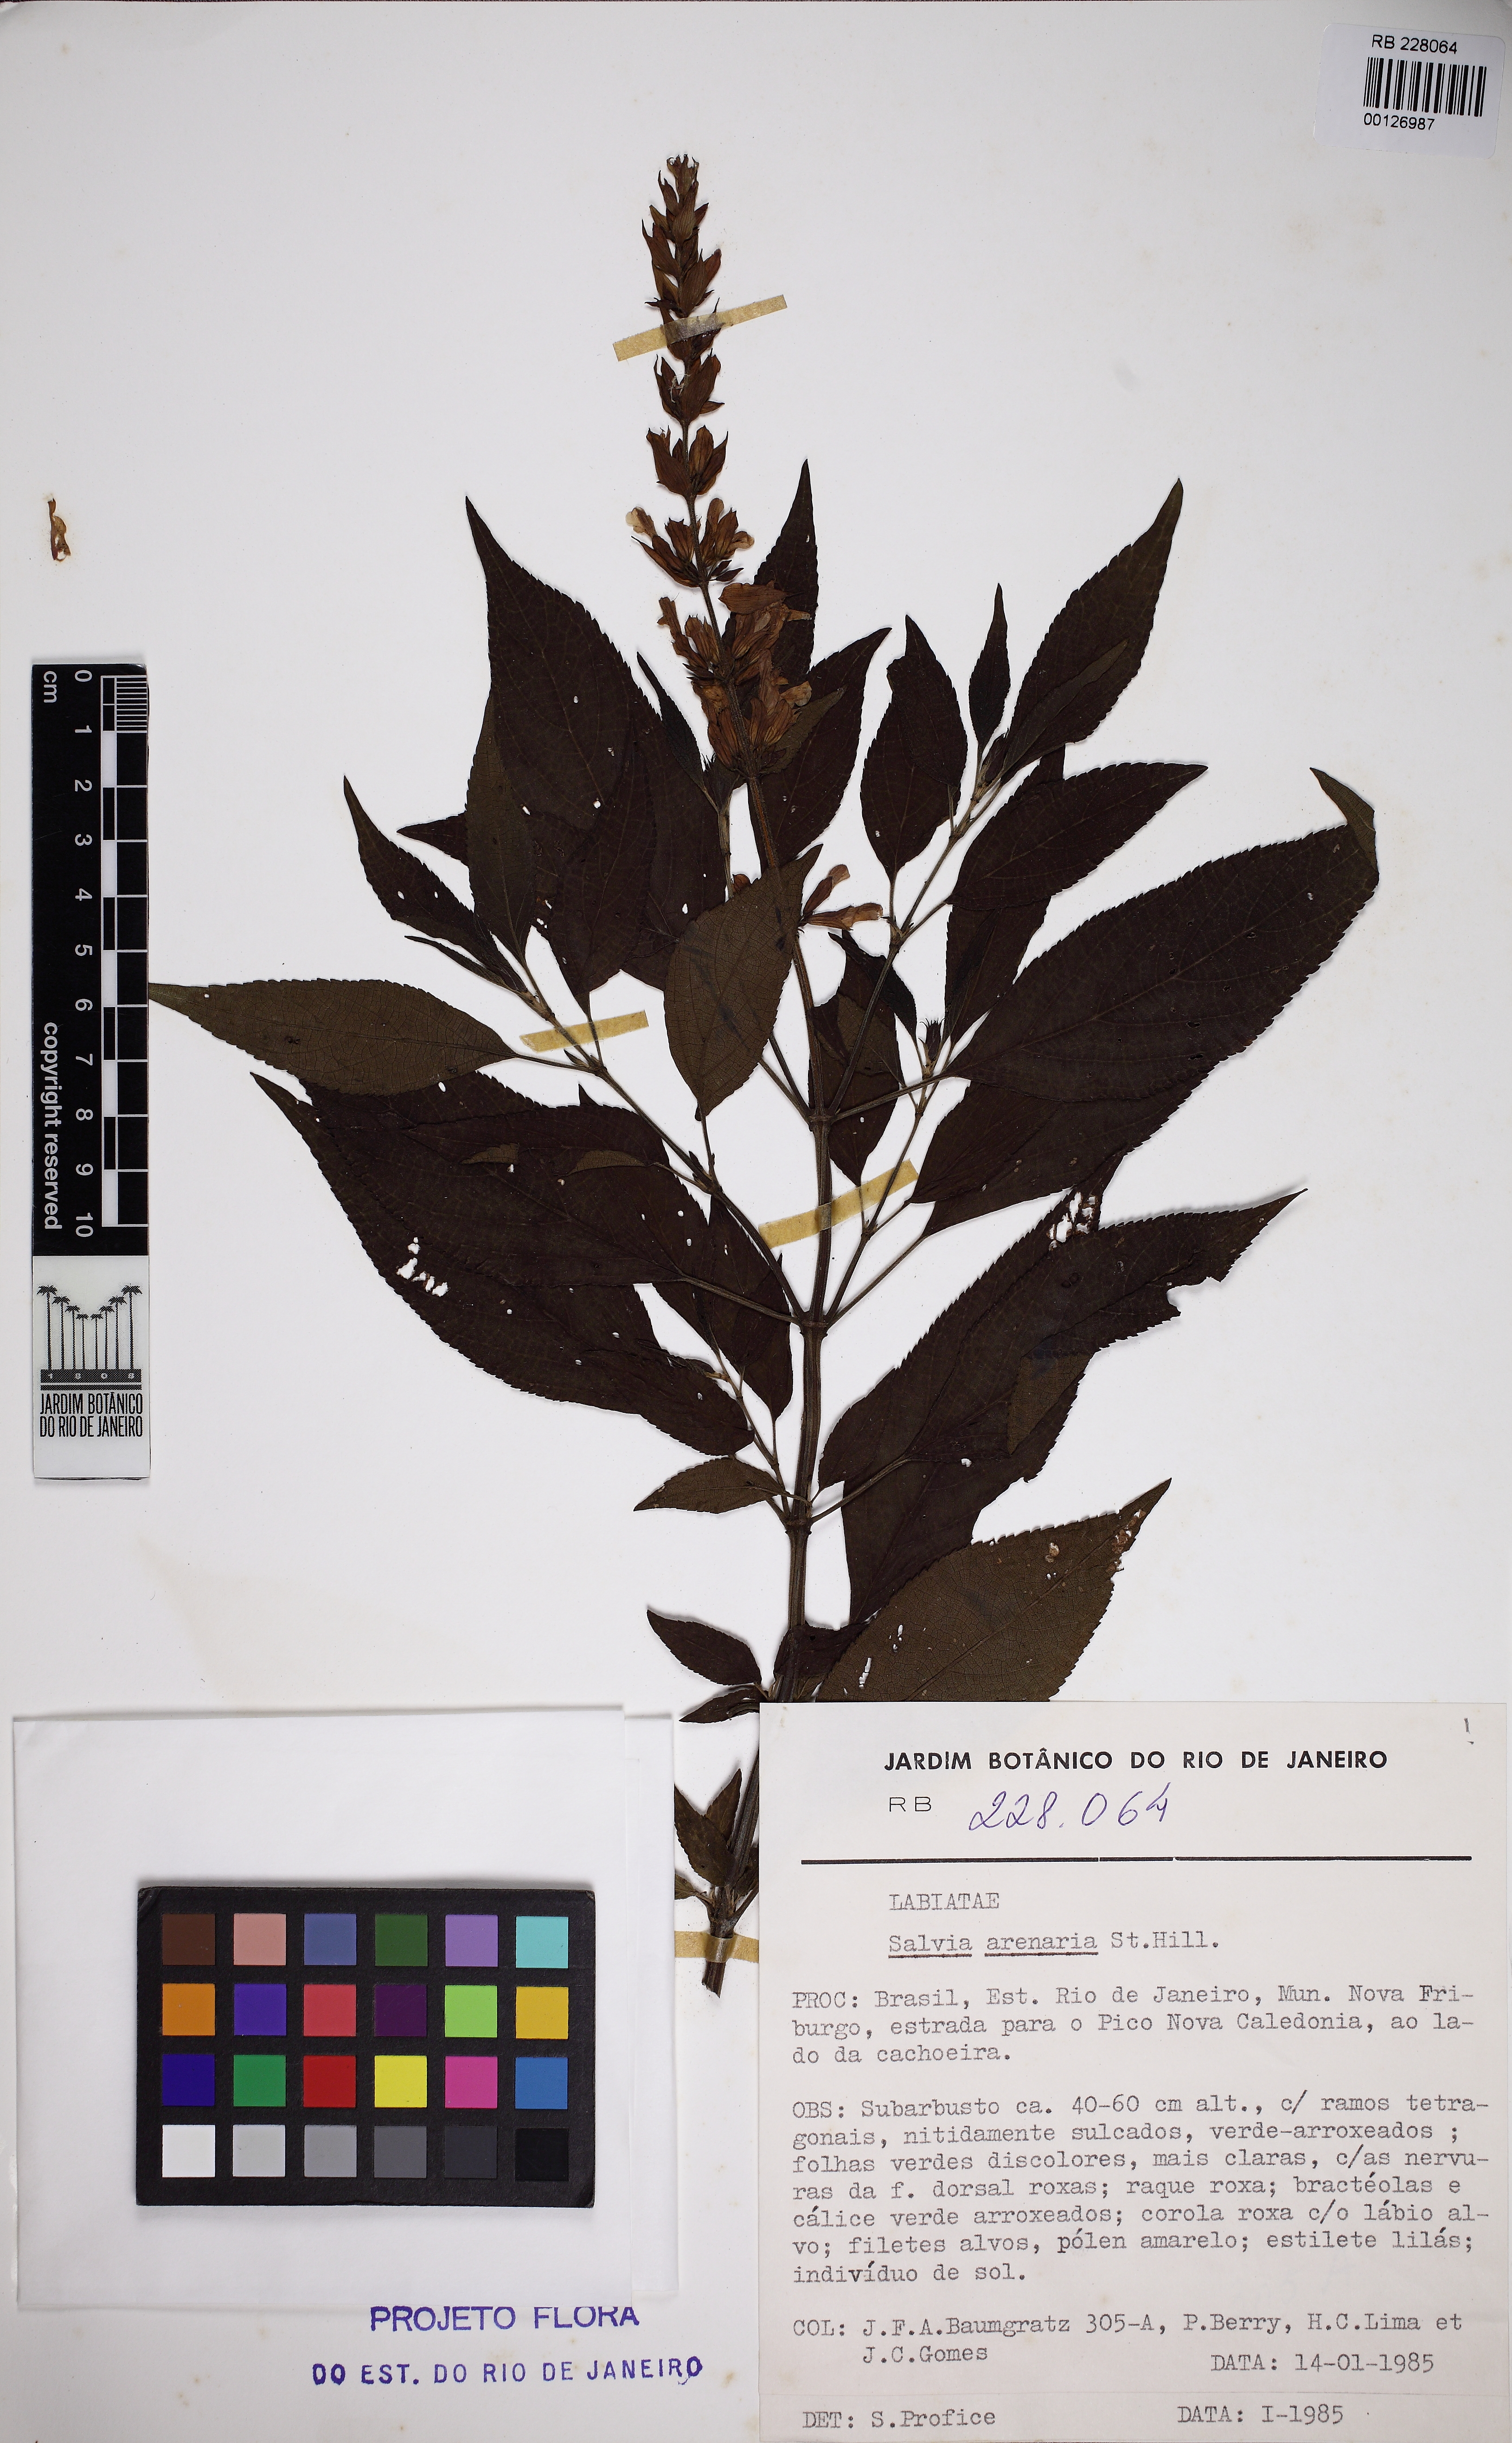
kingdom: Plantae
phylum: Tracheophyta
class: Magnoliopsida
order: Lamiales
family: Lamiaceae
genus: Salvia
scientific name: Salvia arenaria
